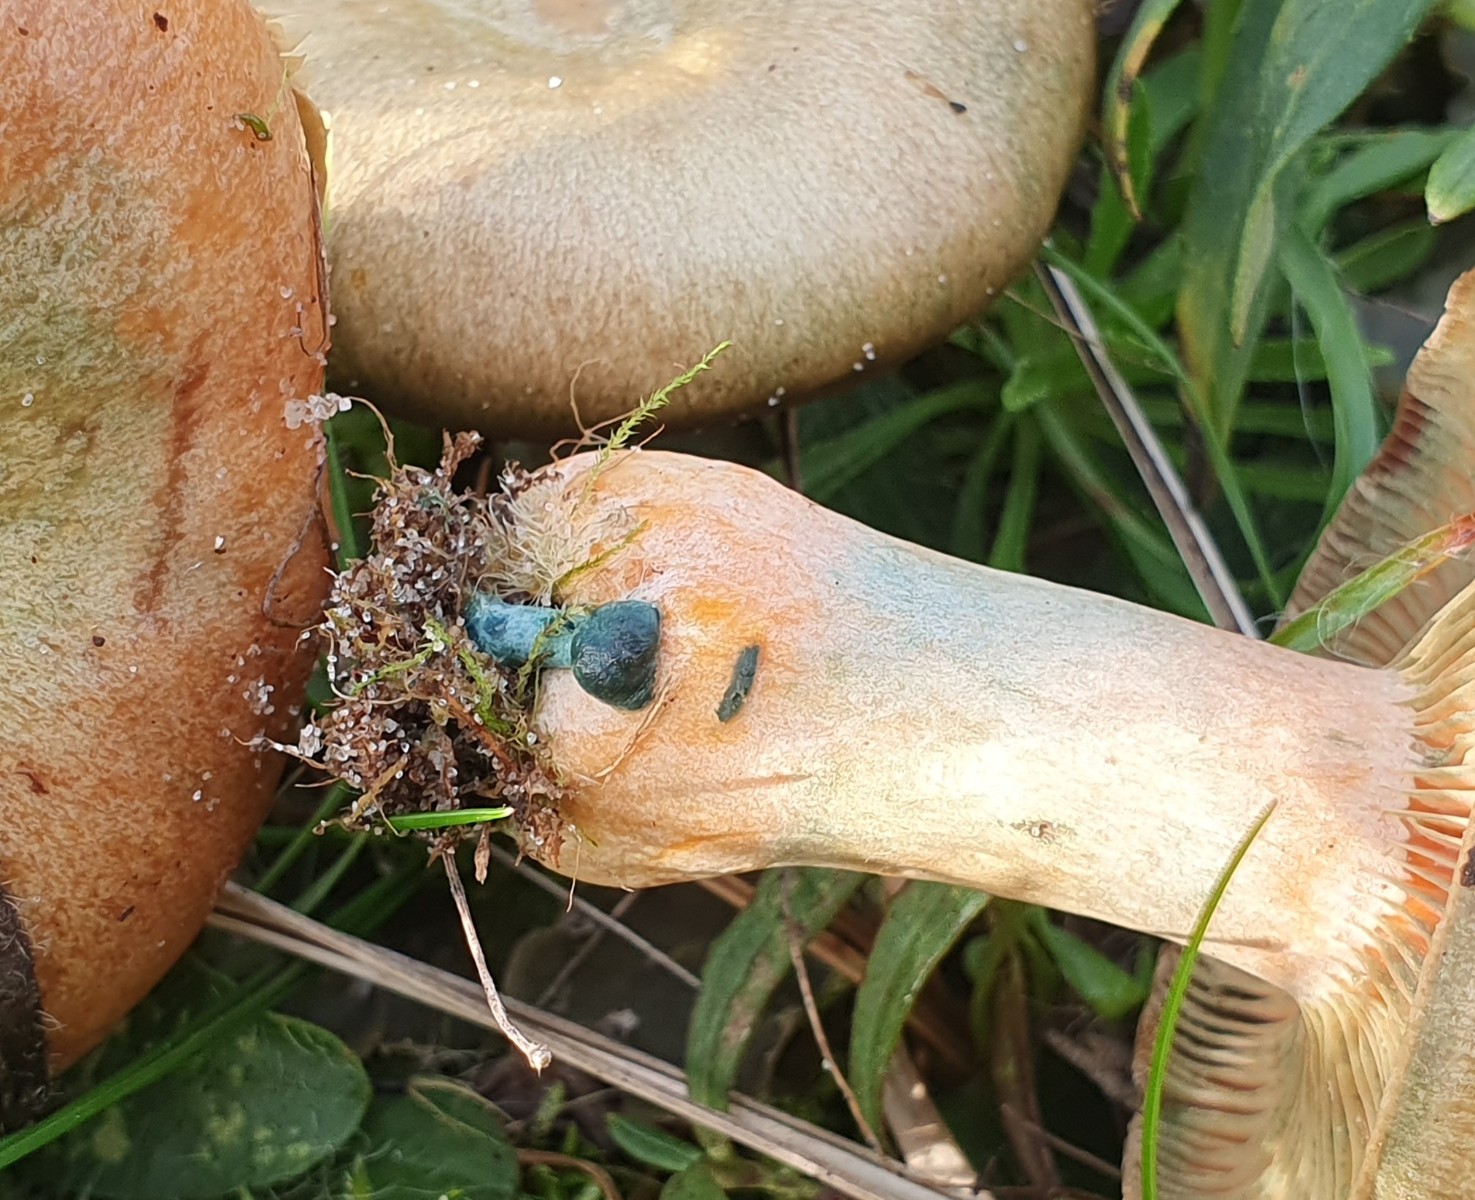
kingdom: Fungi
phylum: Basidiomycota
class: Agaricomycetes
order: Russulales
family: Russulaceae
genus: Lactarius
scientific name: Lactarius
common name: mælkehat
